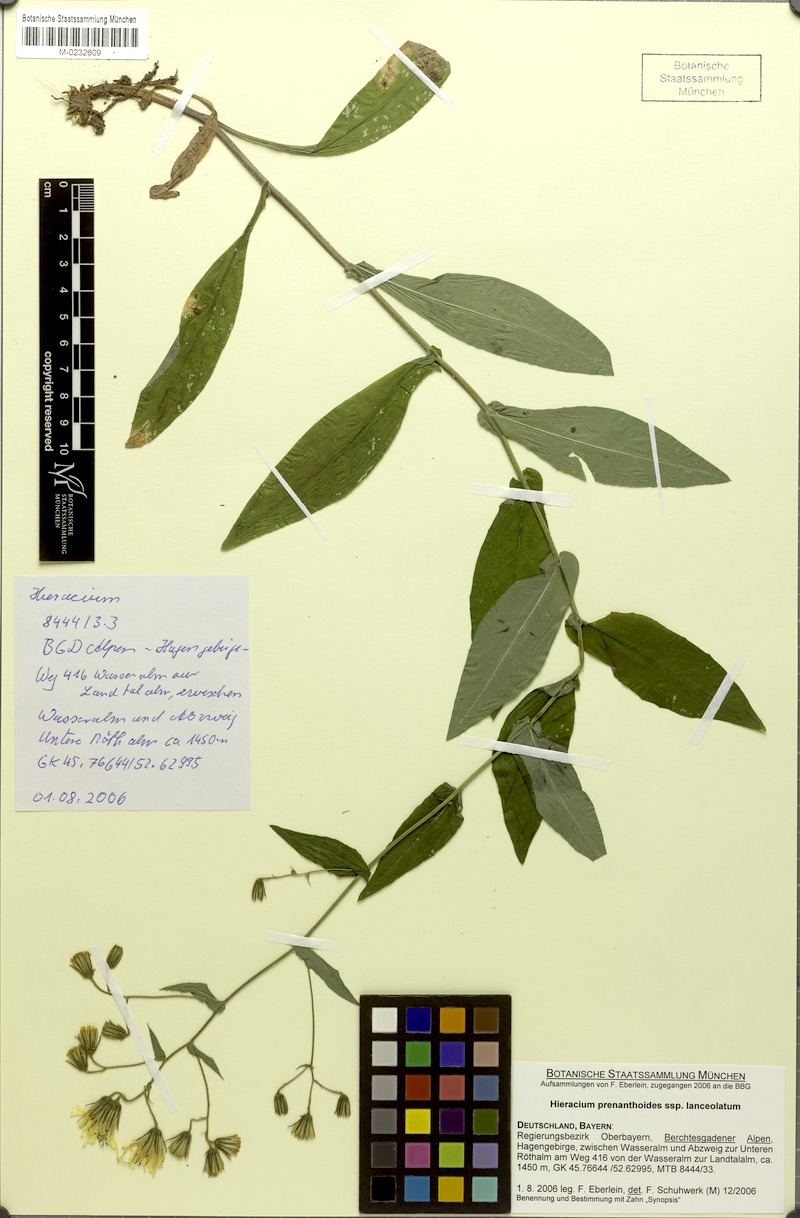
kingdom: Plantae
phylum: Tracheophyta
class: Magnoliopsida
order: Asterales
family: Asteraceae
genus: Hieracium
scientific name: Hieracium prenanthoides
